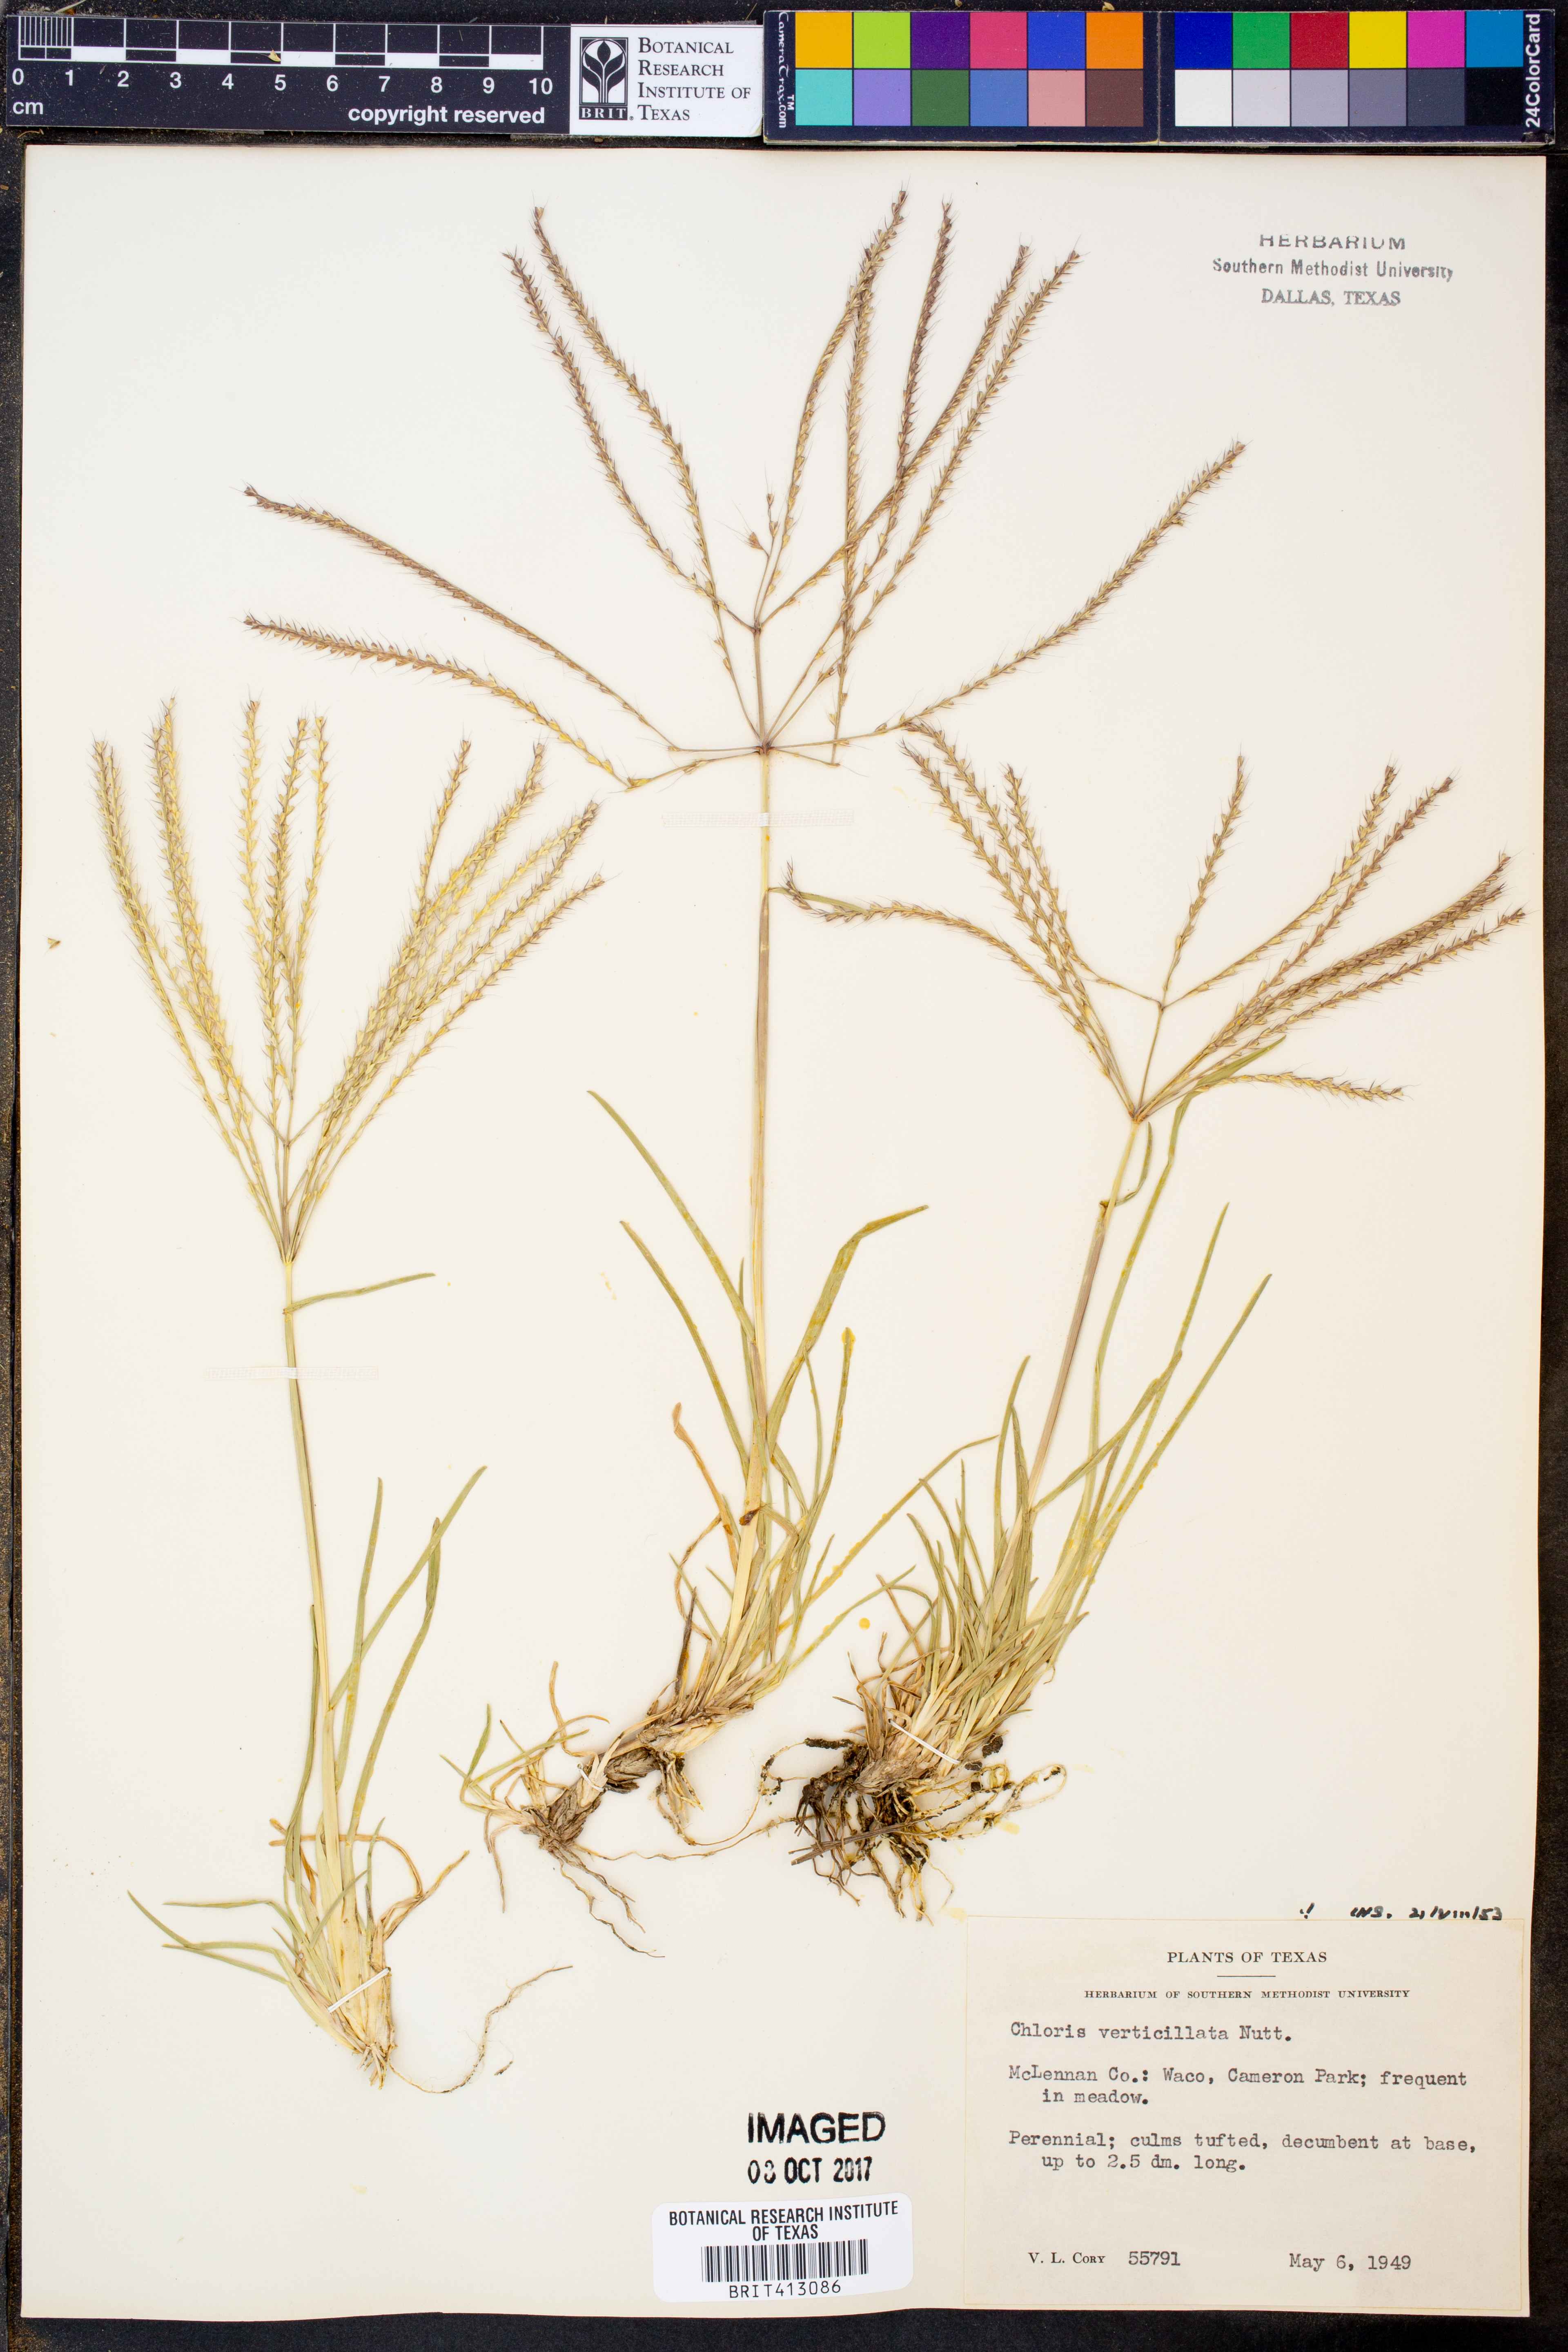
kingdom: Plantae
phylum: Tracheophyta
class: Liliopsida
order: Poales
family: Poaceae
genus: Chloris
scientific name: Chloris verticillata
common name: Tumble windmill grass
